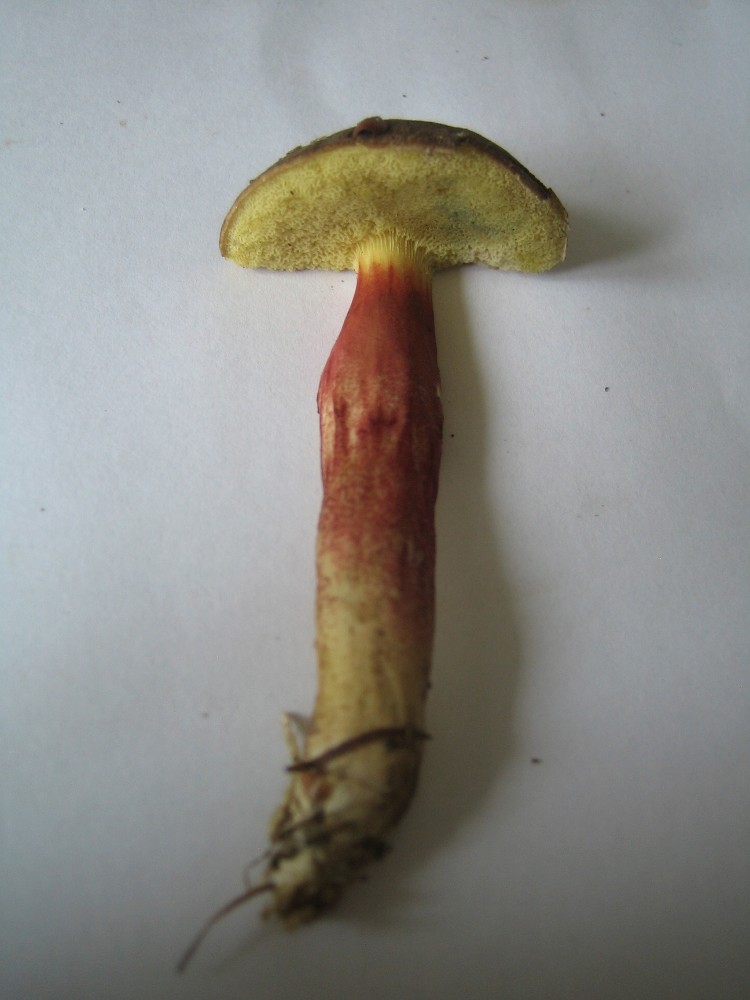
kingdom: Fungi
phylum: Basidiomycota
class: Agaricomycetes
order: Boletales
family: Boletaceae
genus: Xerocomellus
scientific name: Xerocomellus chrysenteron
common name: rødsprukken rørhat
